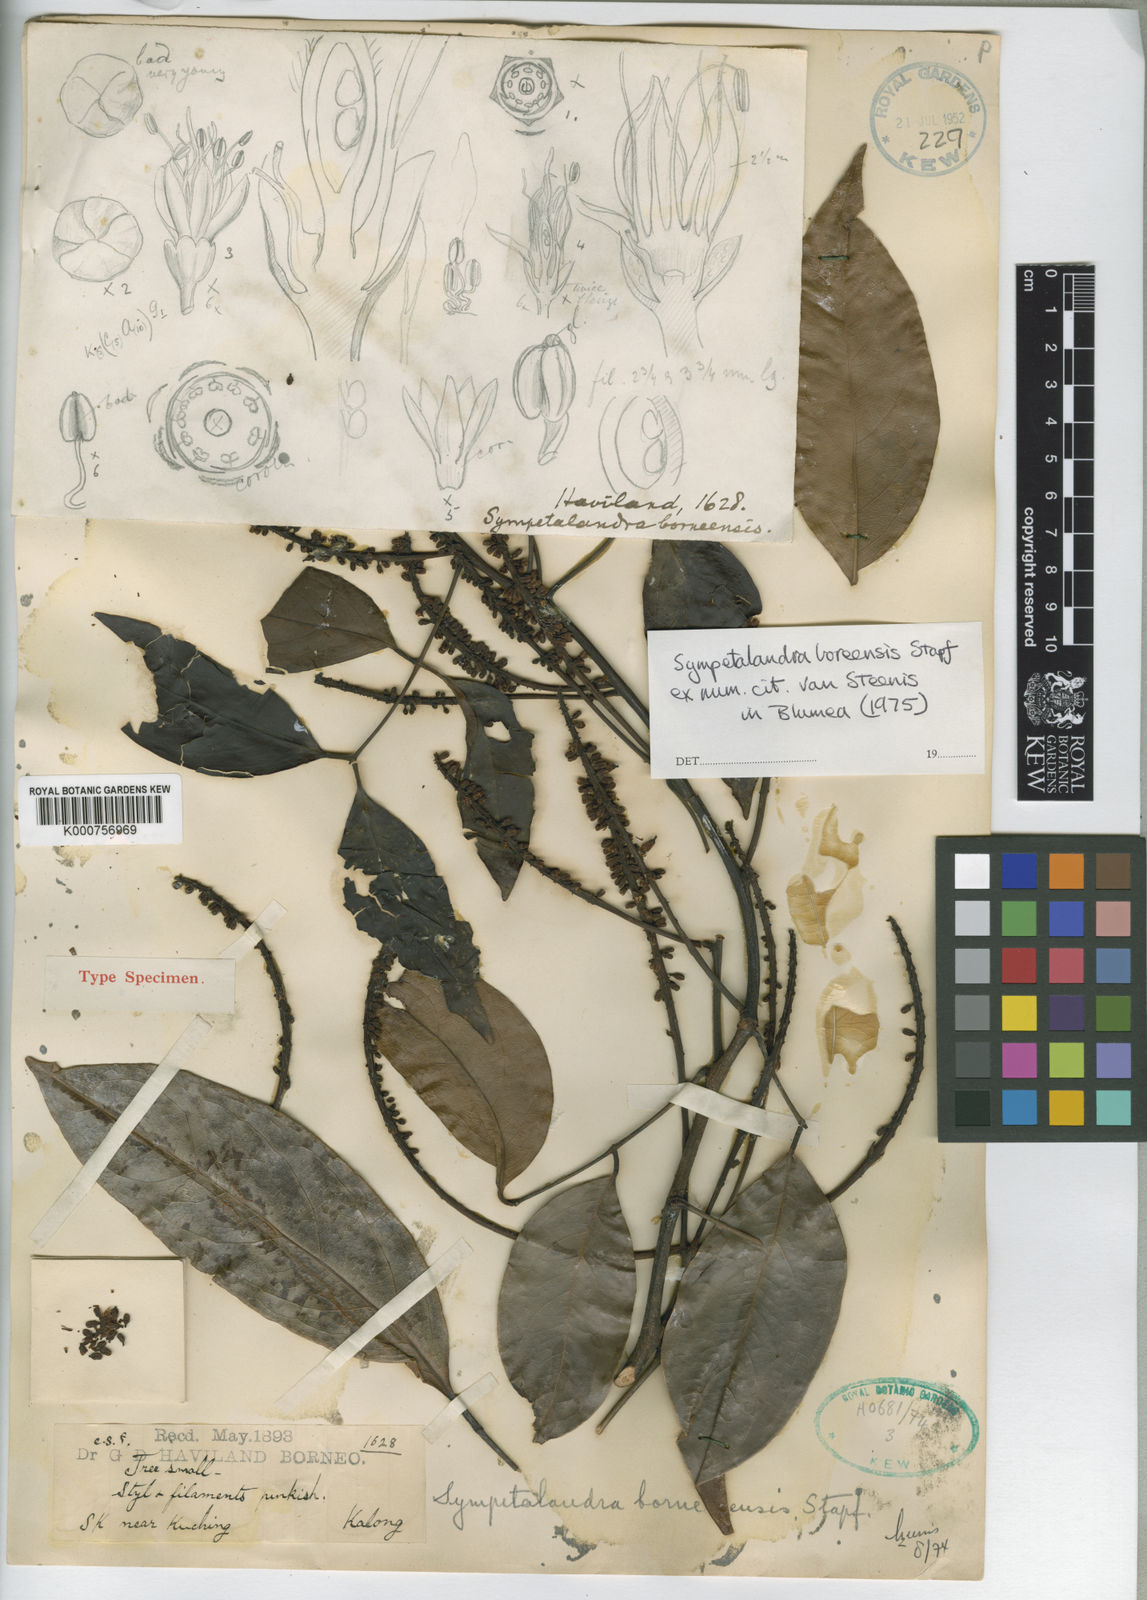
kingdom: Plantae
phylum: Tracheophyta
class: Magnoliopsida
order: Fabales
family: Fabaceae
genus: Sympetalandra
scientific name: Sympetalandra borneensis
